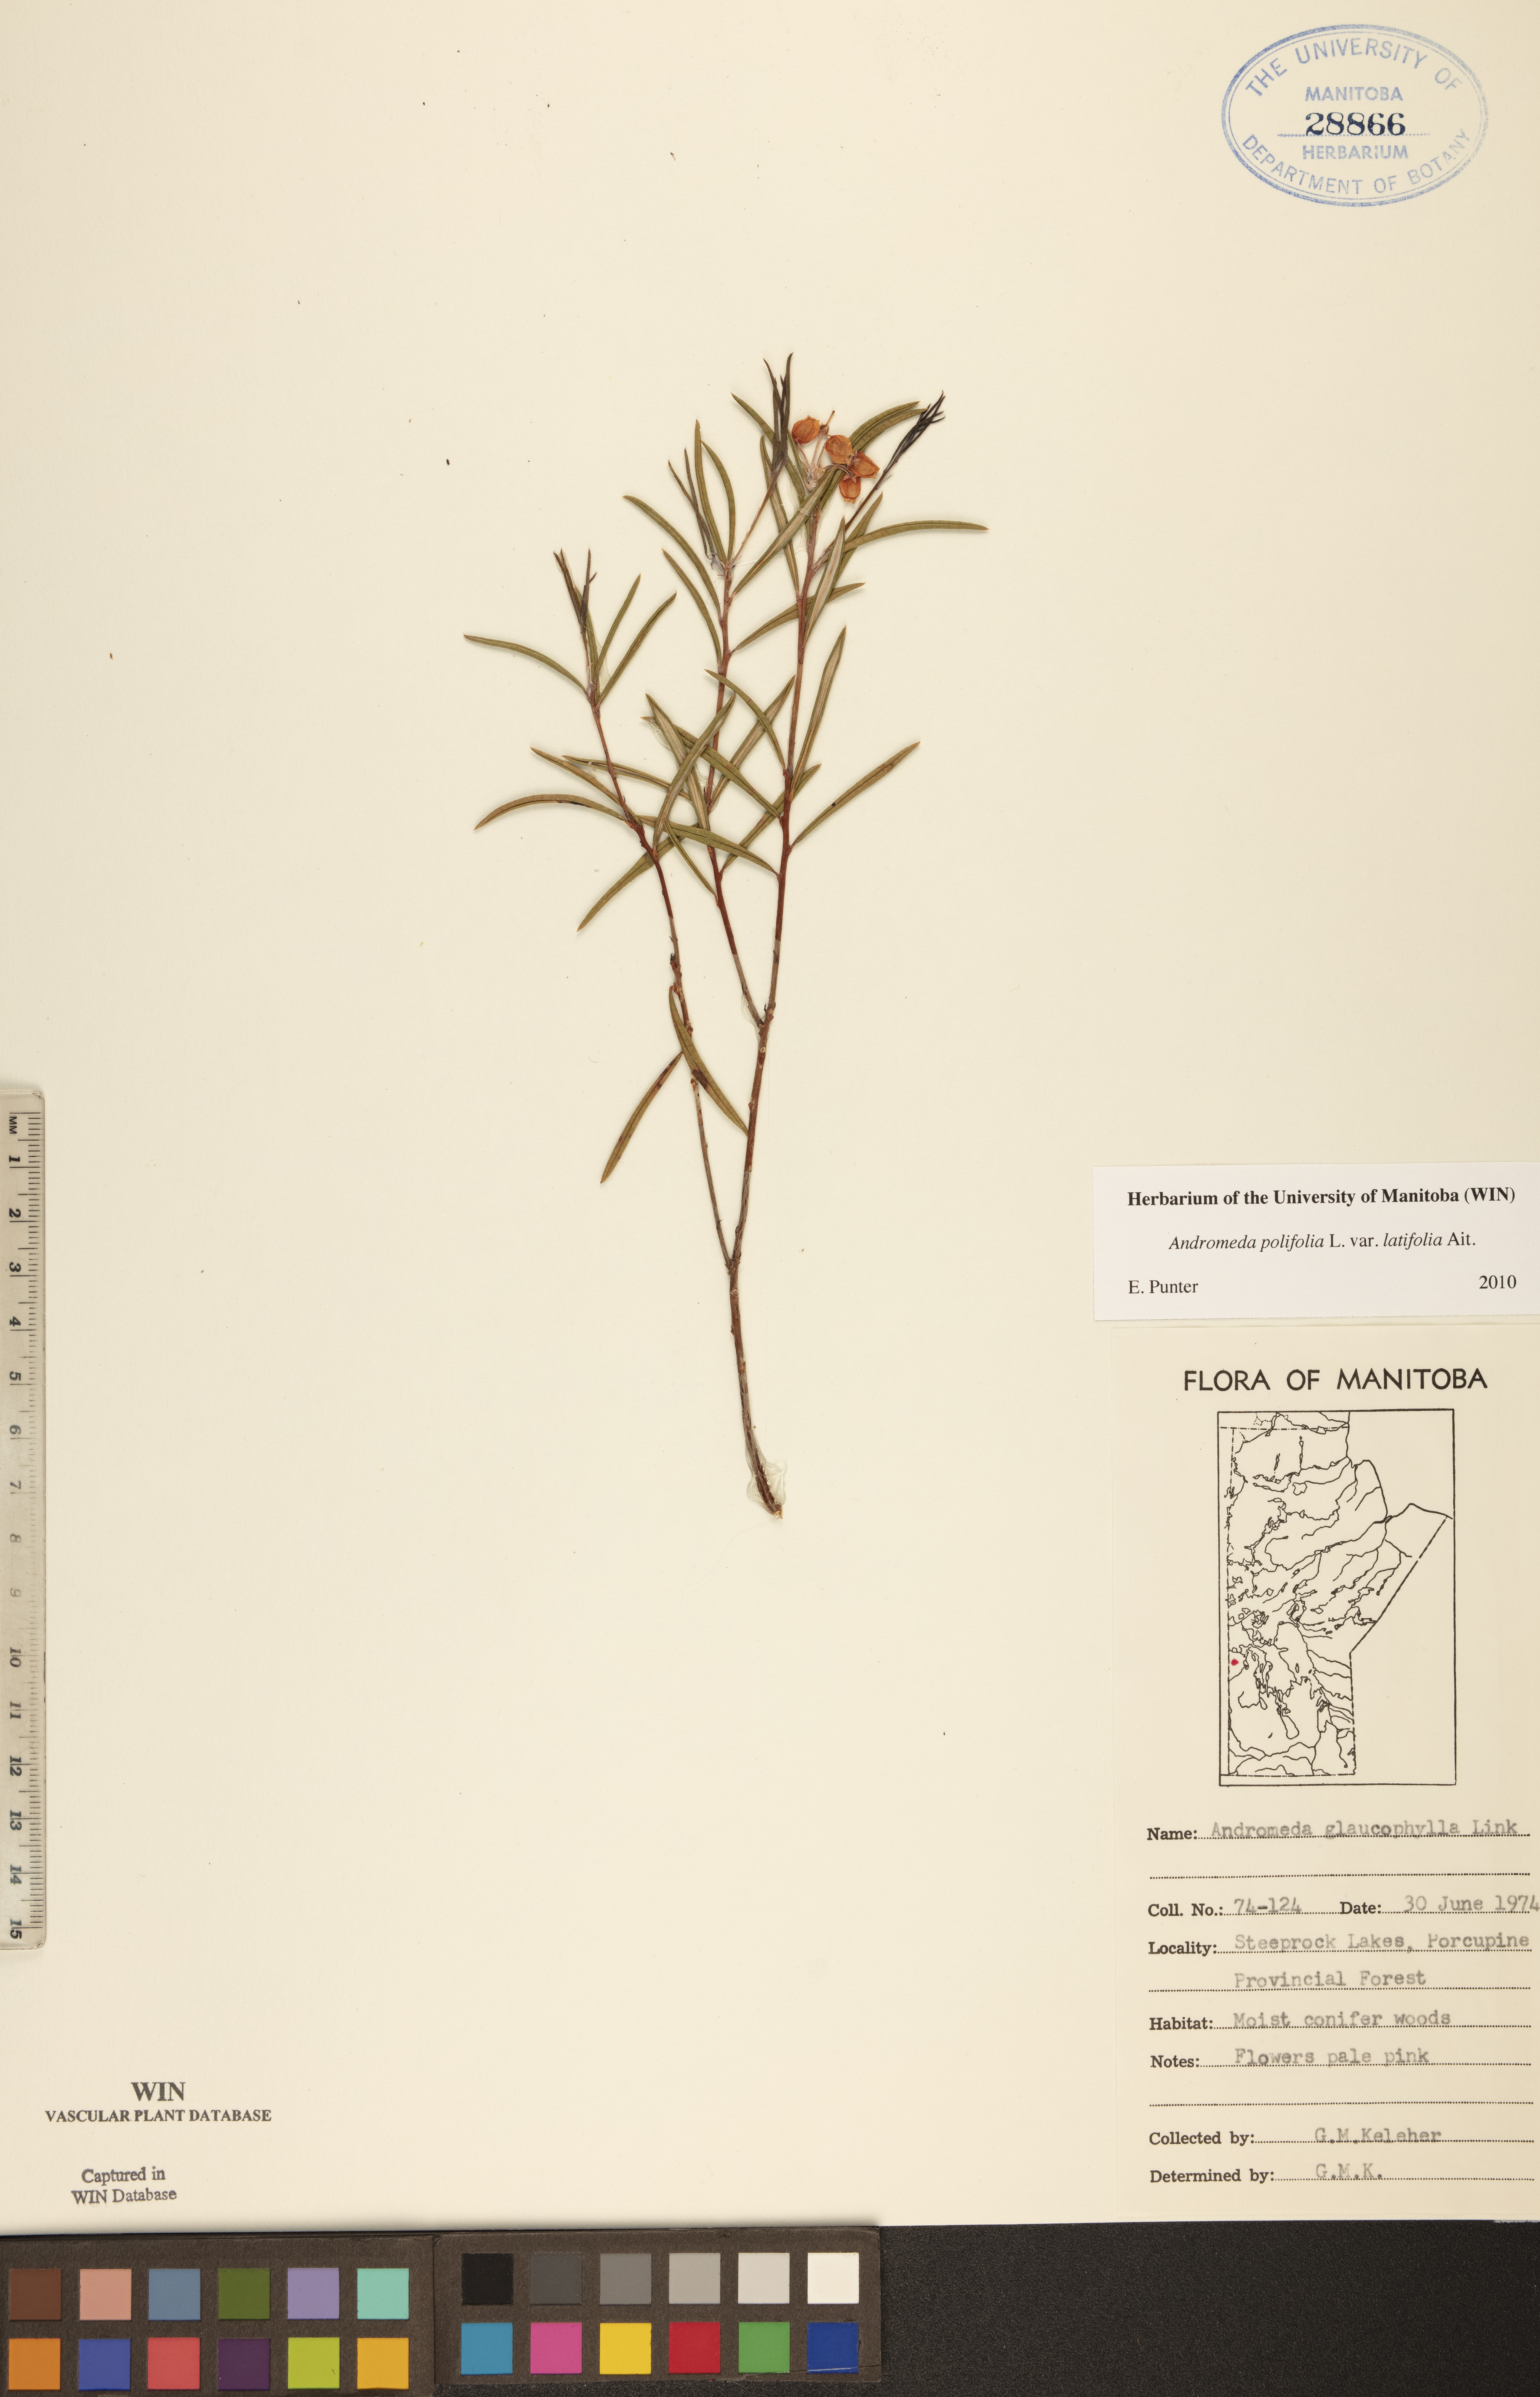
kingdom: Plantae
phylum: Tracheophyta
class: Magnoliopsida
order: Ericales
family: Ericaceae
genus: Andromeda
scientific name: Andromeda polifolia
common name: Bog-rosemary
